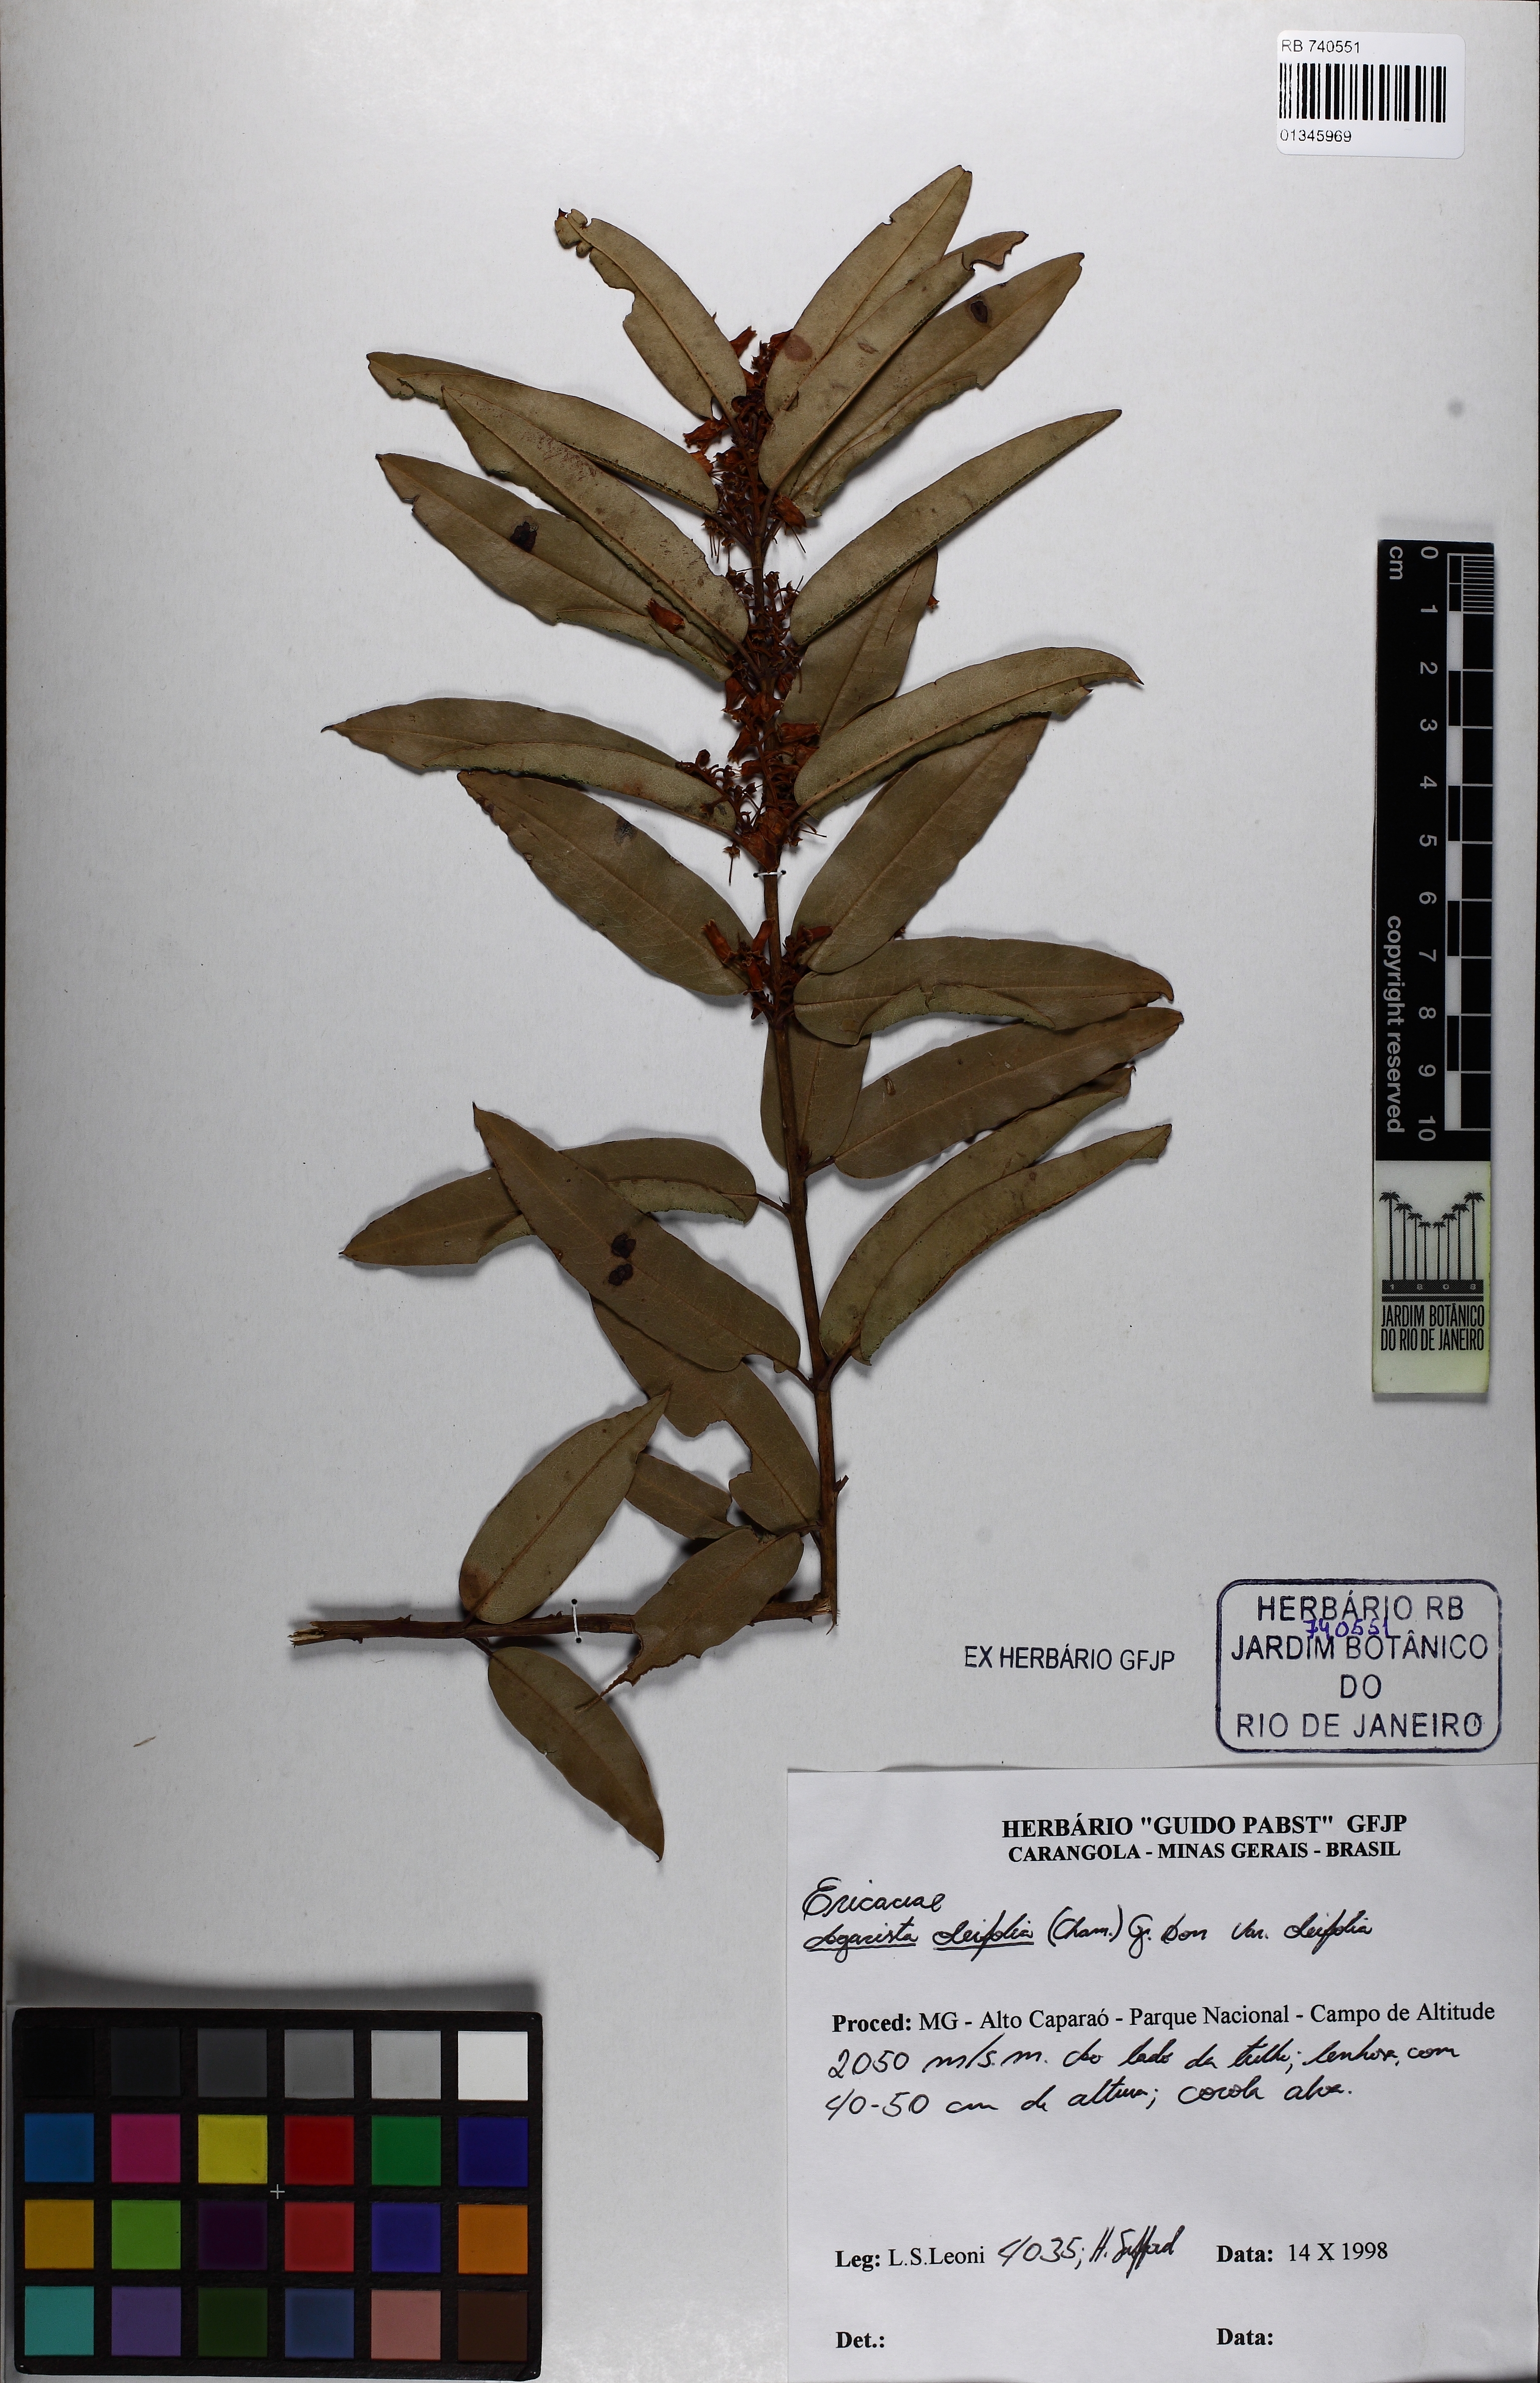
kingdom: Plantae
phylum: Tracheophyta
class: Magnoliopsida
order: Ericales
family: Ericaceae
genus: Agarista
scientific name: Agarista oleifolia
